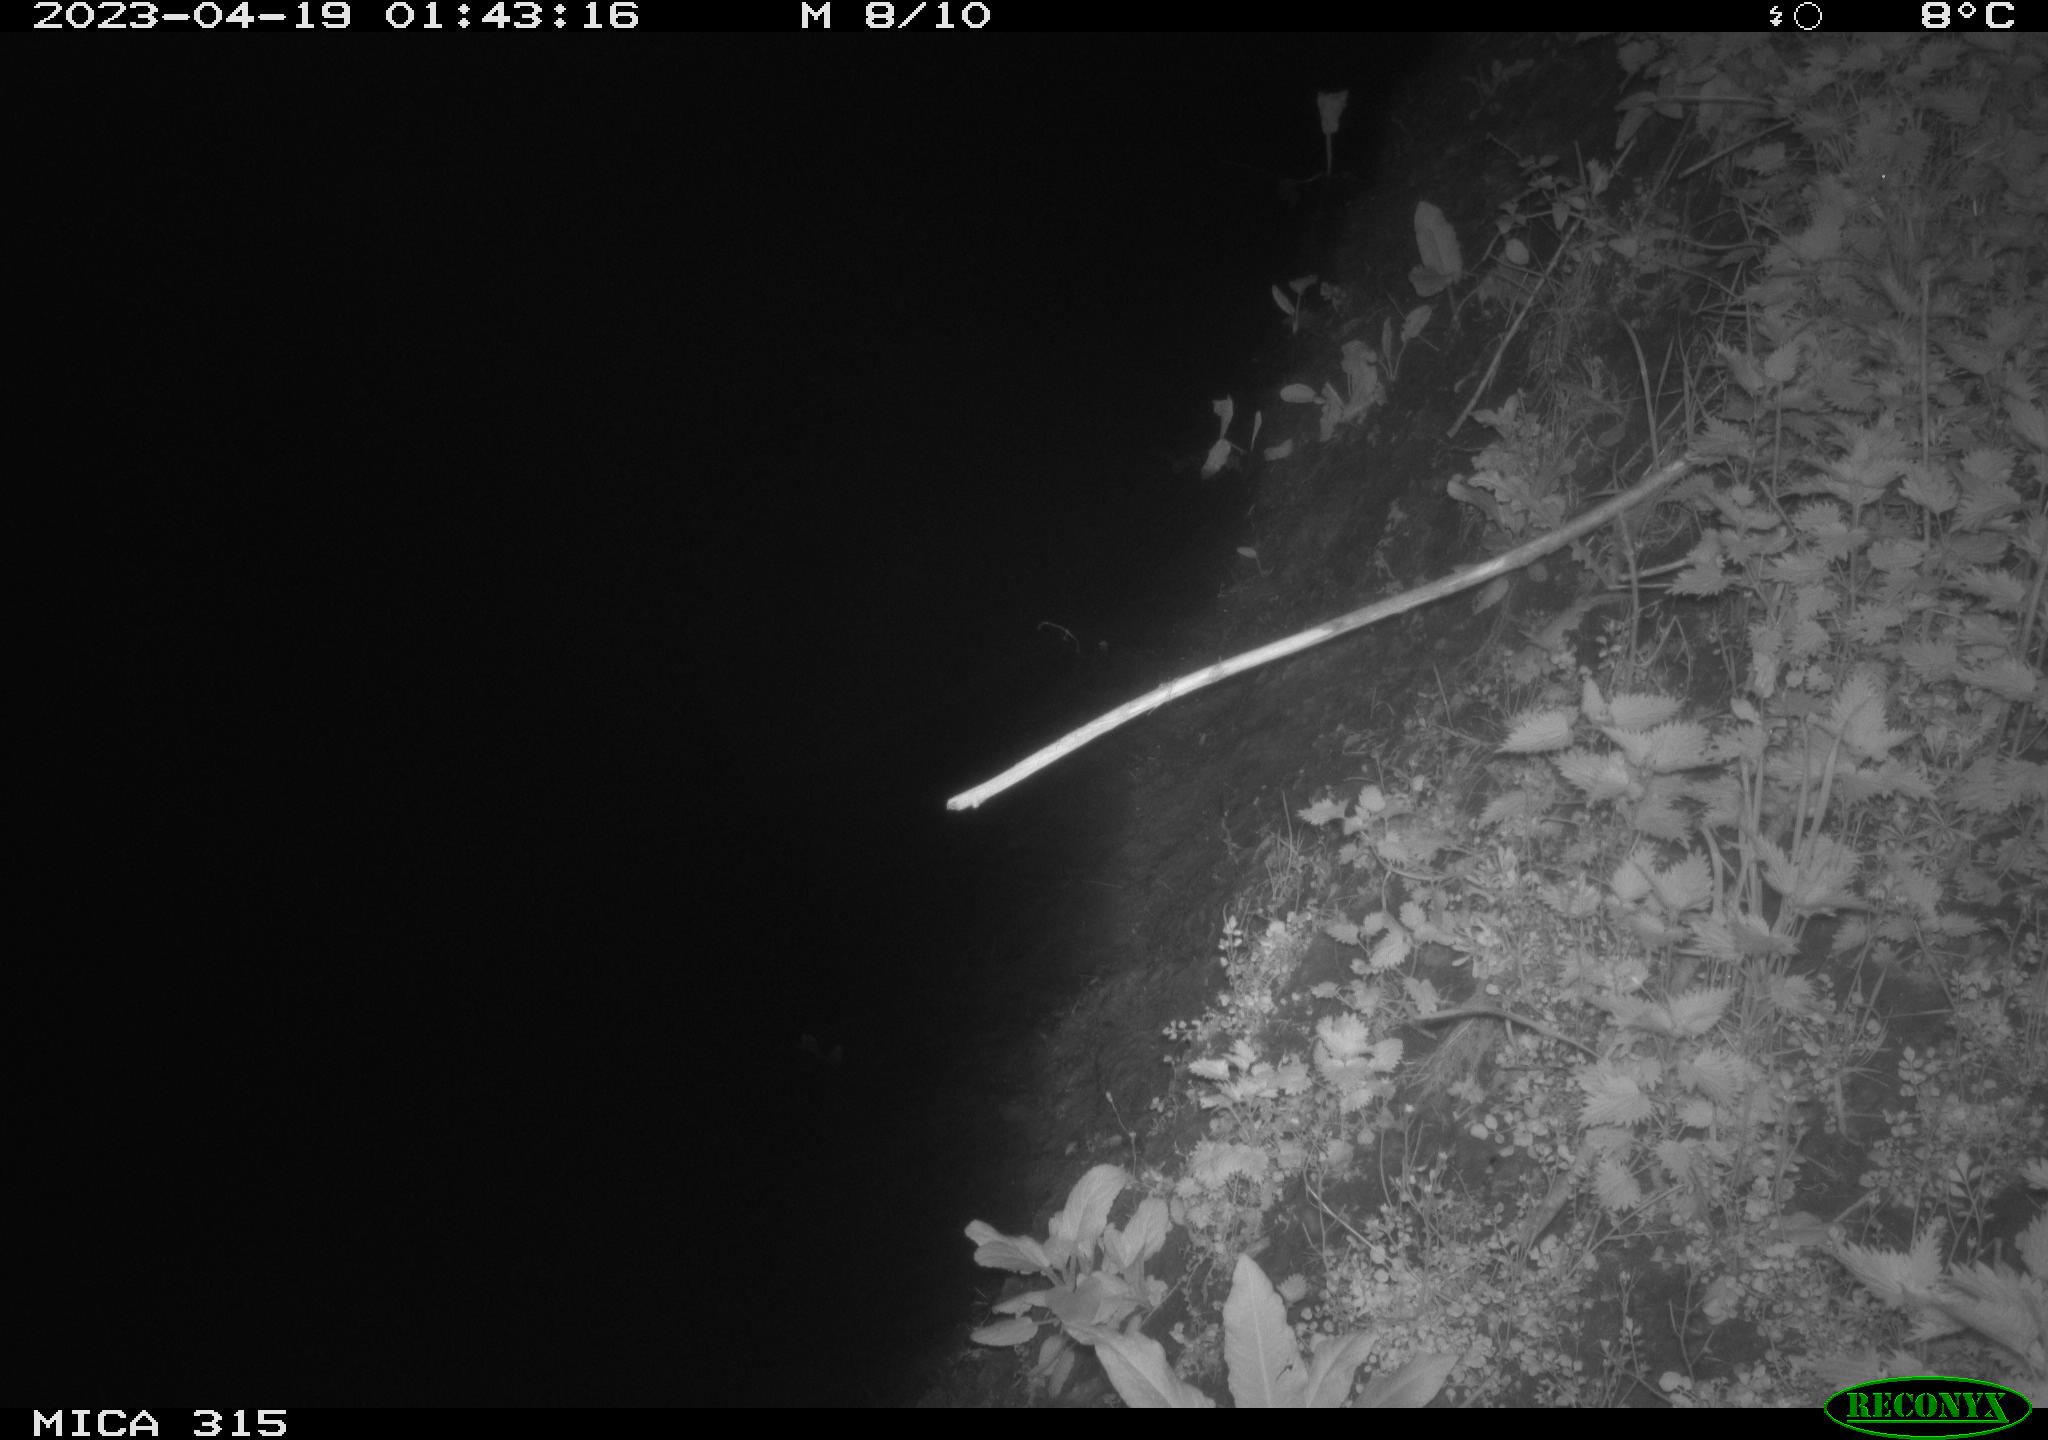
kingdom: Animalia
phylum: Chordata
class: Aves
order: Anseriformes
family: Anatidae
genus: Anas
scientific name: Anas
